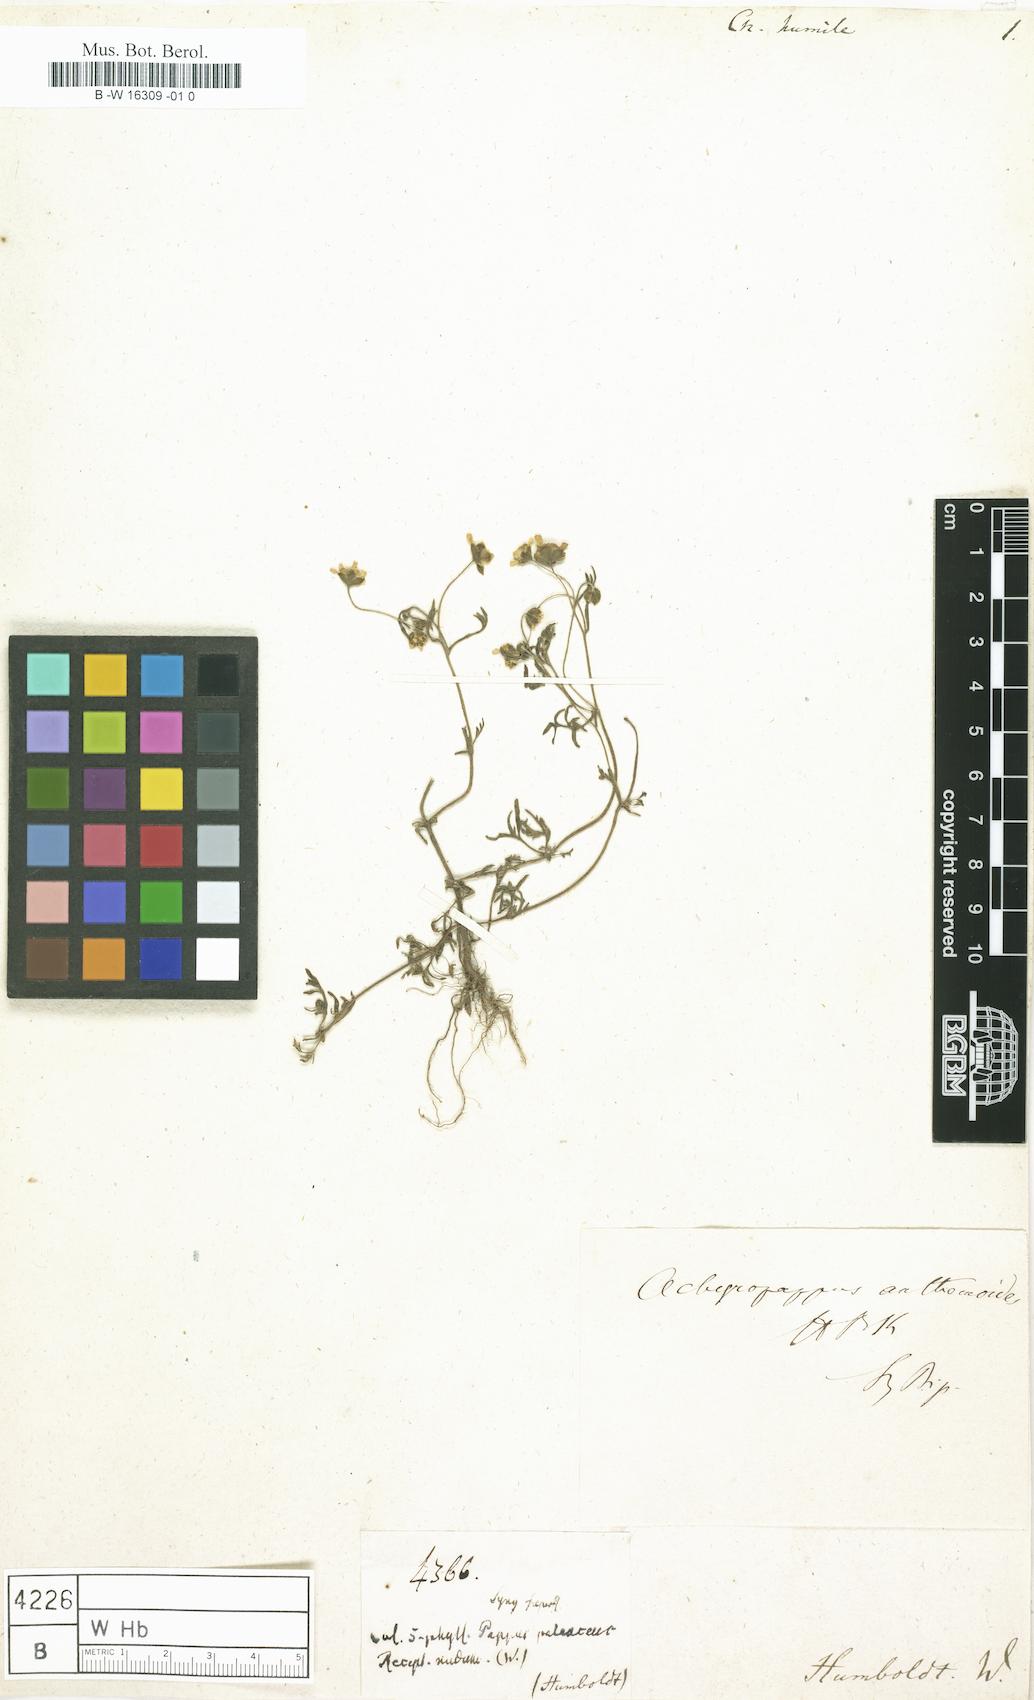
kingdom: Plantae
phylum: Tracheophyta
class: Magnoliopsida
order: Asterales
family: Asteraceae
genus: Schkuhria
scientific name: Schkuhria
